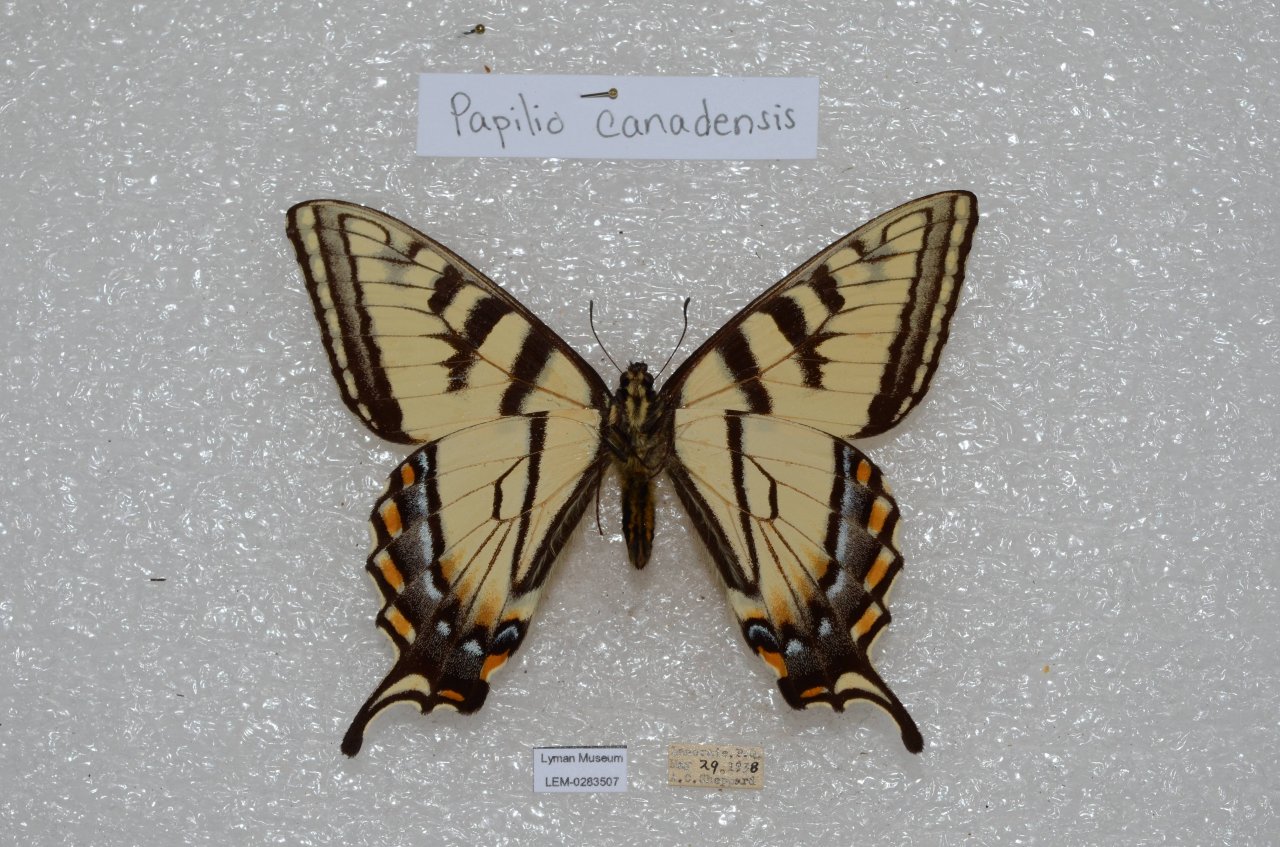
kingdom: Animalia
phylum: Arthropoda
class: Insecta
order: Lepidoptera
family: Papilionidae
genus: Pterourus
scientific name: Pterourus canadensis
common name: Canadian Tiger Swallowtail
